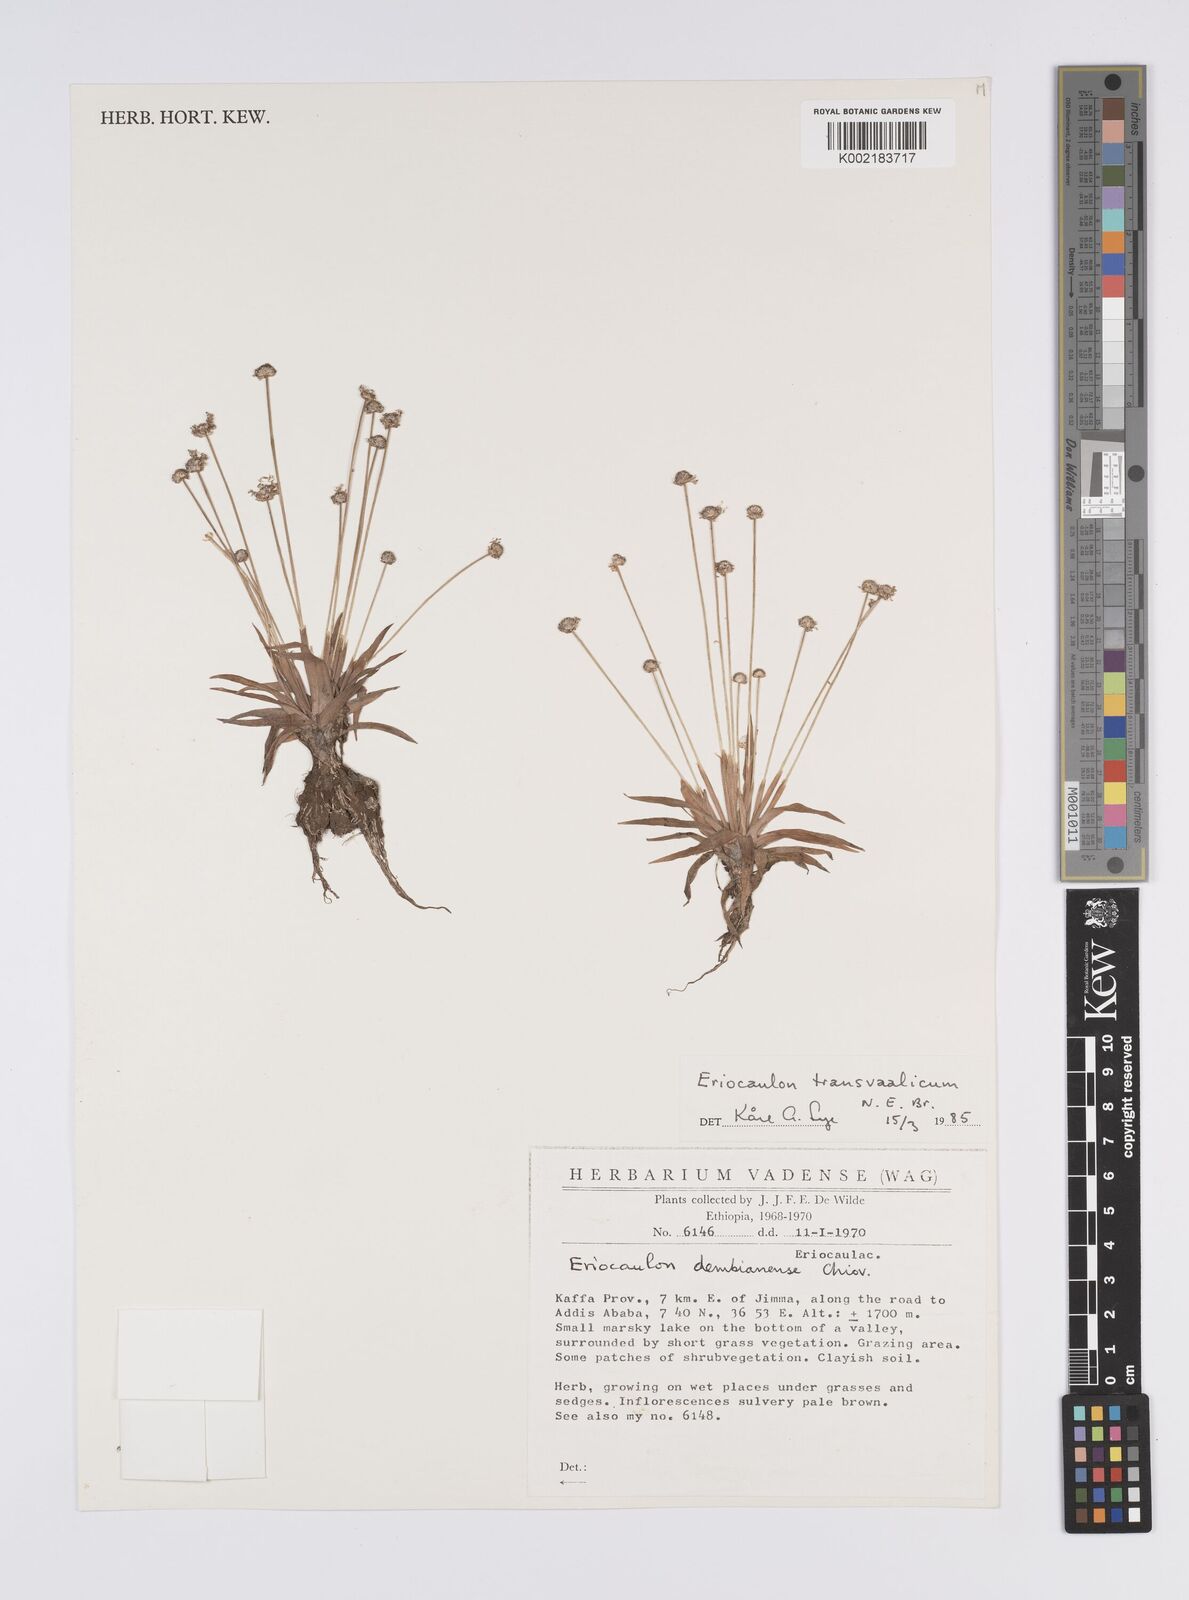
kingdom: Plantae
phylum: Tracheophyta
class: Liliopsida
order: Poales
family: Eriocaulaceae
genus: Eriocaulon
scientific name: Eriocaulon transvaalicum
